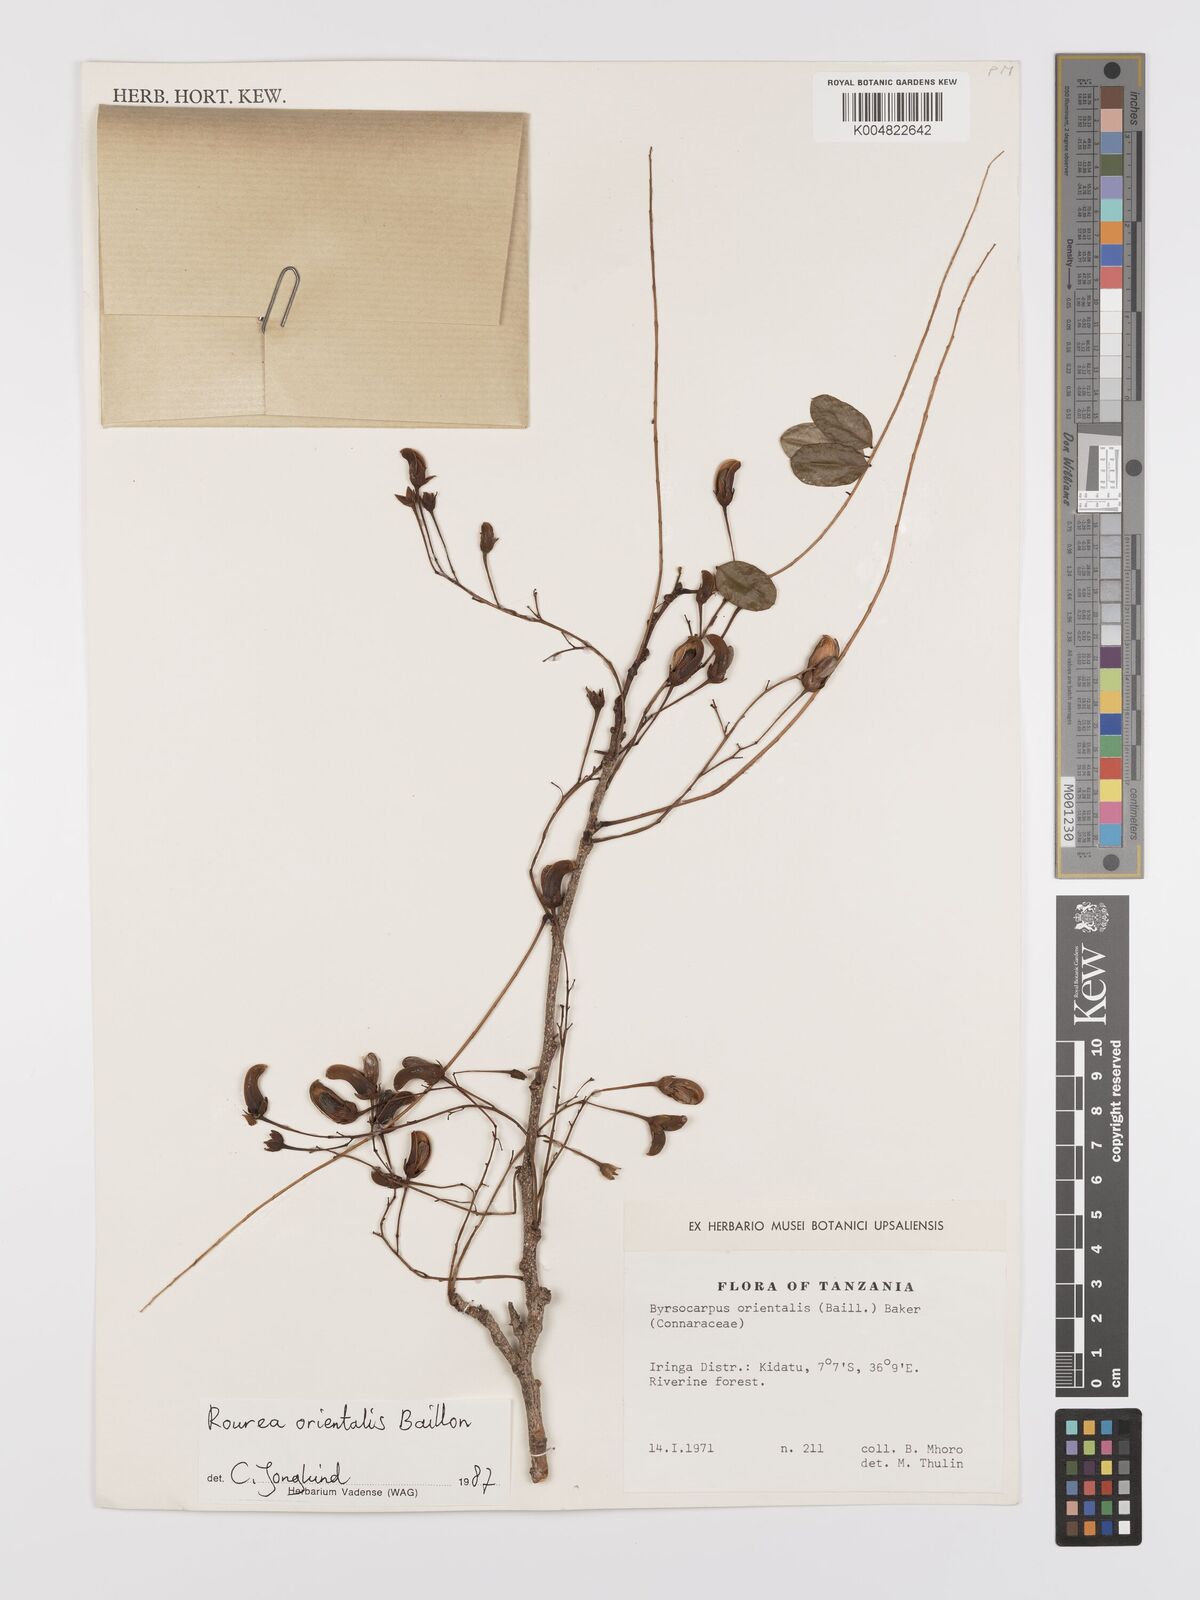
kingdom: Plantae
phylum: Tracheophyta
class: Magnoliopsida
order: Oxalidales
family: Connaraceae
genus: Rourea
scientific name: Rourea orientalis
